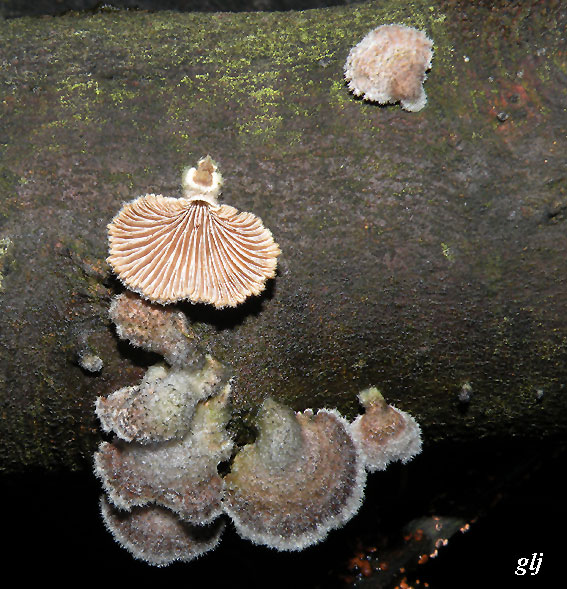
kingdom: Fungi
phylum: Basidiomycota
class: Agaricomycetes
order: Agaricales
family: Schizophyllaceae
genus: Schizophyllum
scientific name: Schizophyllum commune
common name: kløvblad
